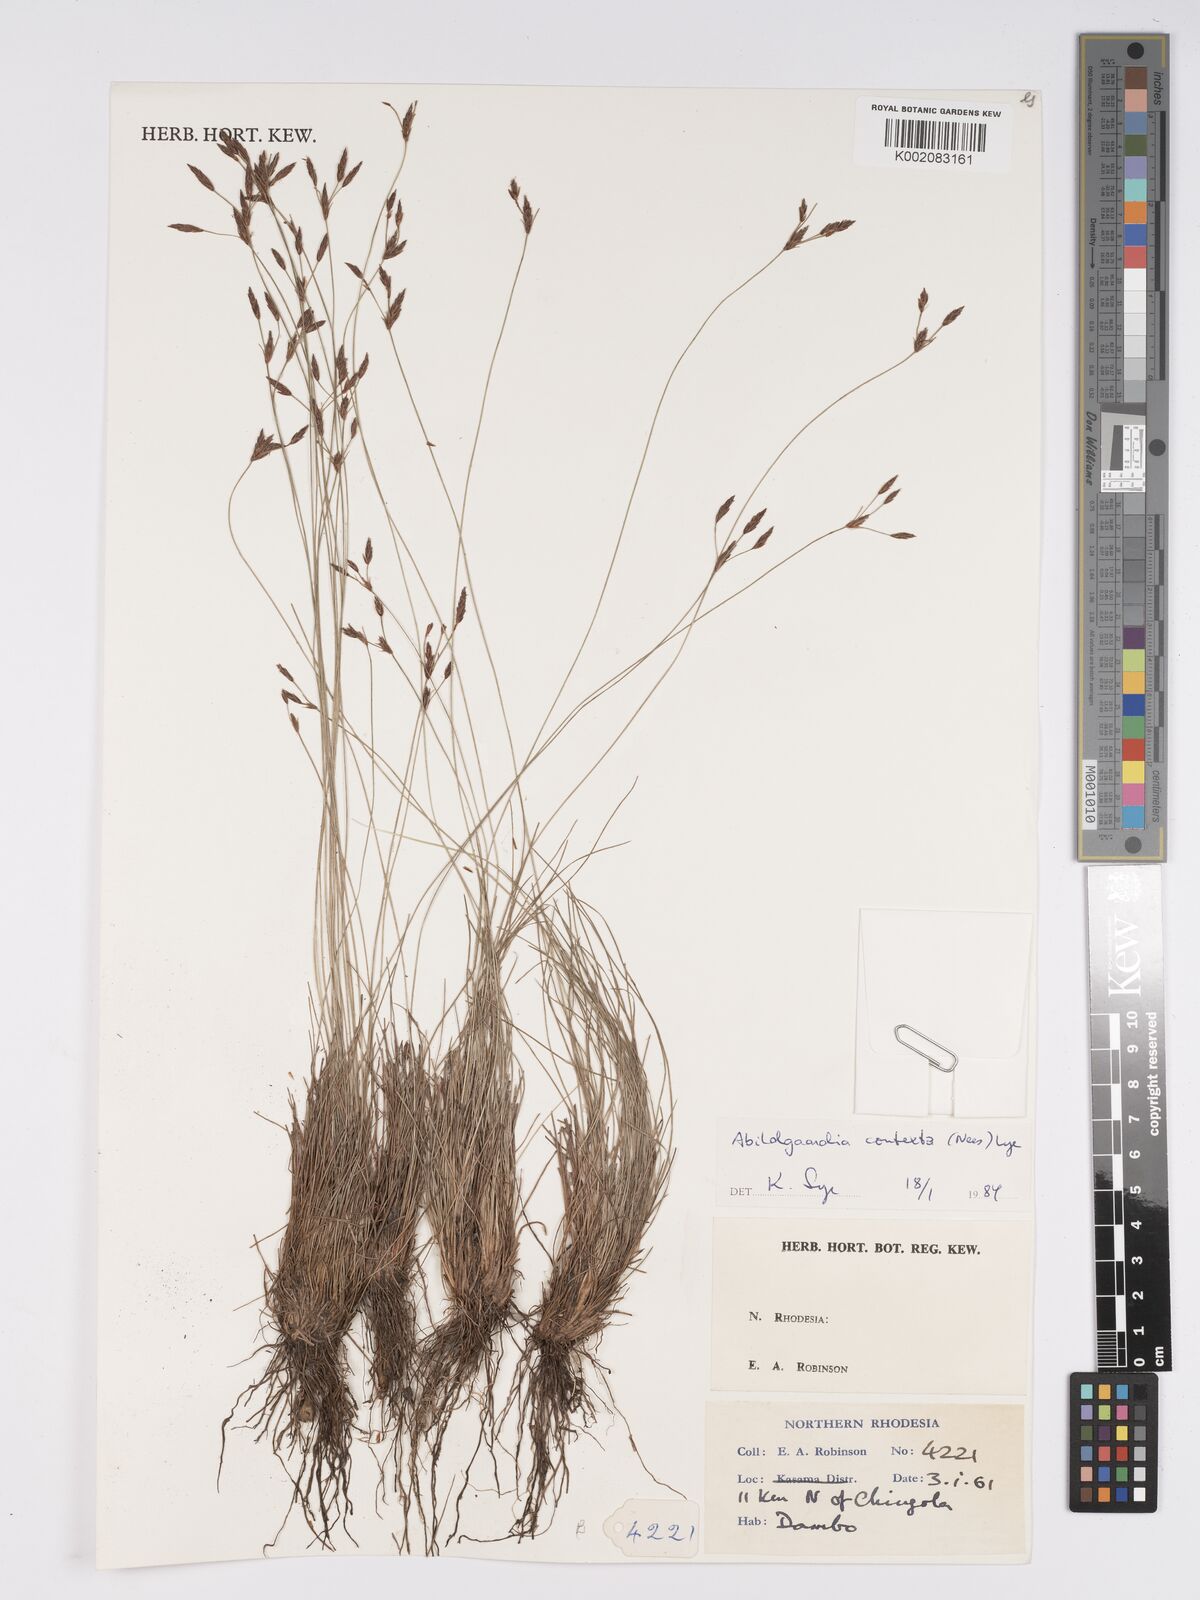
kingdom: Plantae
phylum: Tracheophyta
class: Liliopsida
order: Poales
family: Cyperaceae
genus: Bulbostylis
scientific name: Bulbostylis contexta
